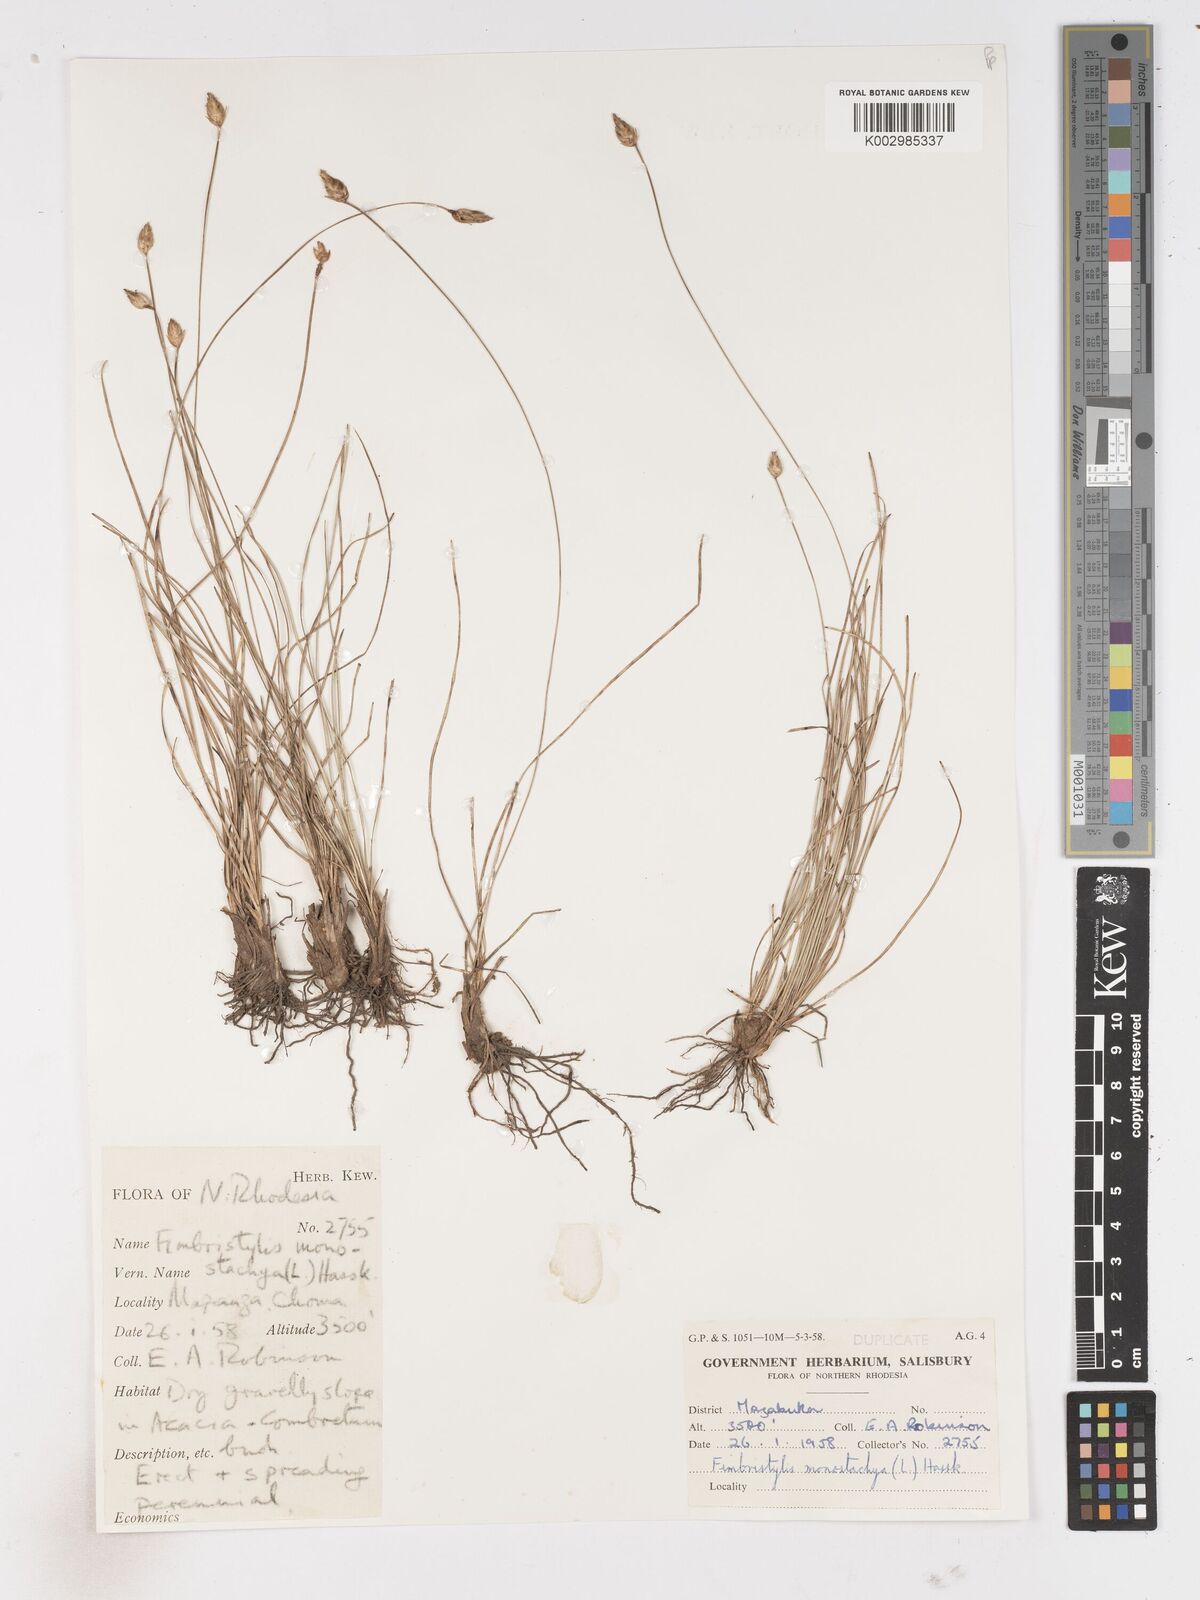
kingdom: Plantae
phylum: Tracheophyta
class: Liliopsida
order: Poales
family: Cyperaceae
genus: Abildgaardia
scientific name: Abildgaardia ovata
